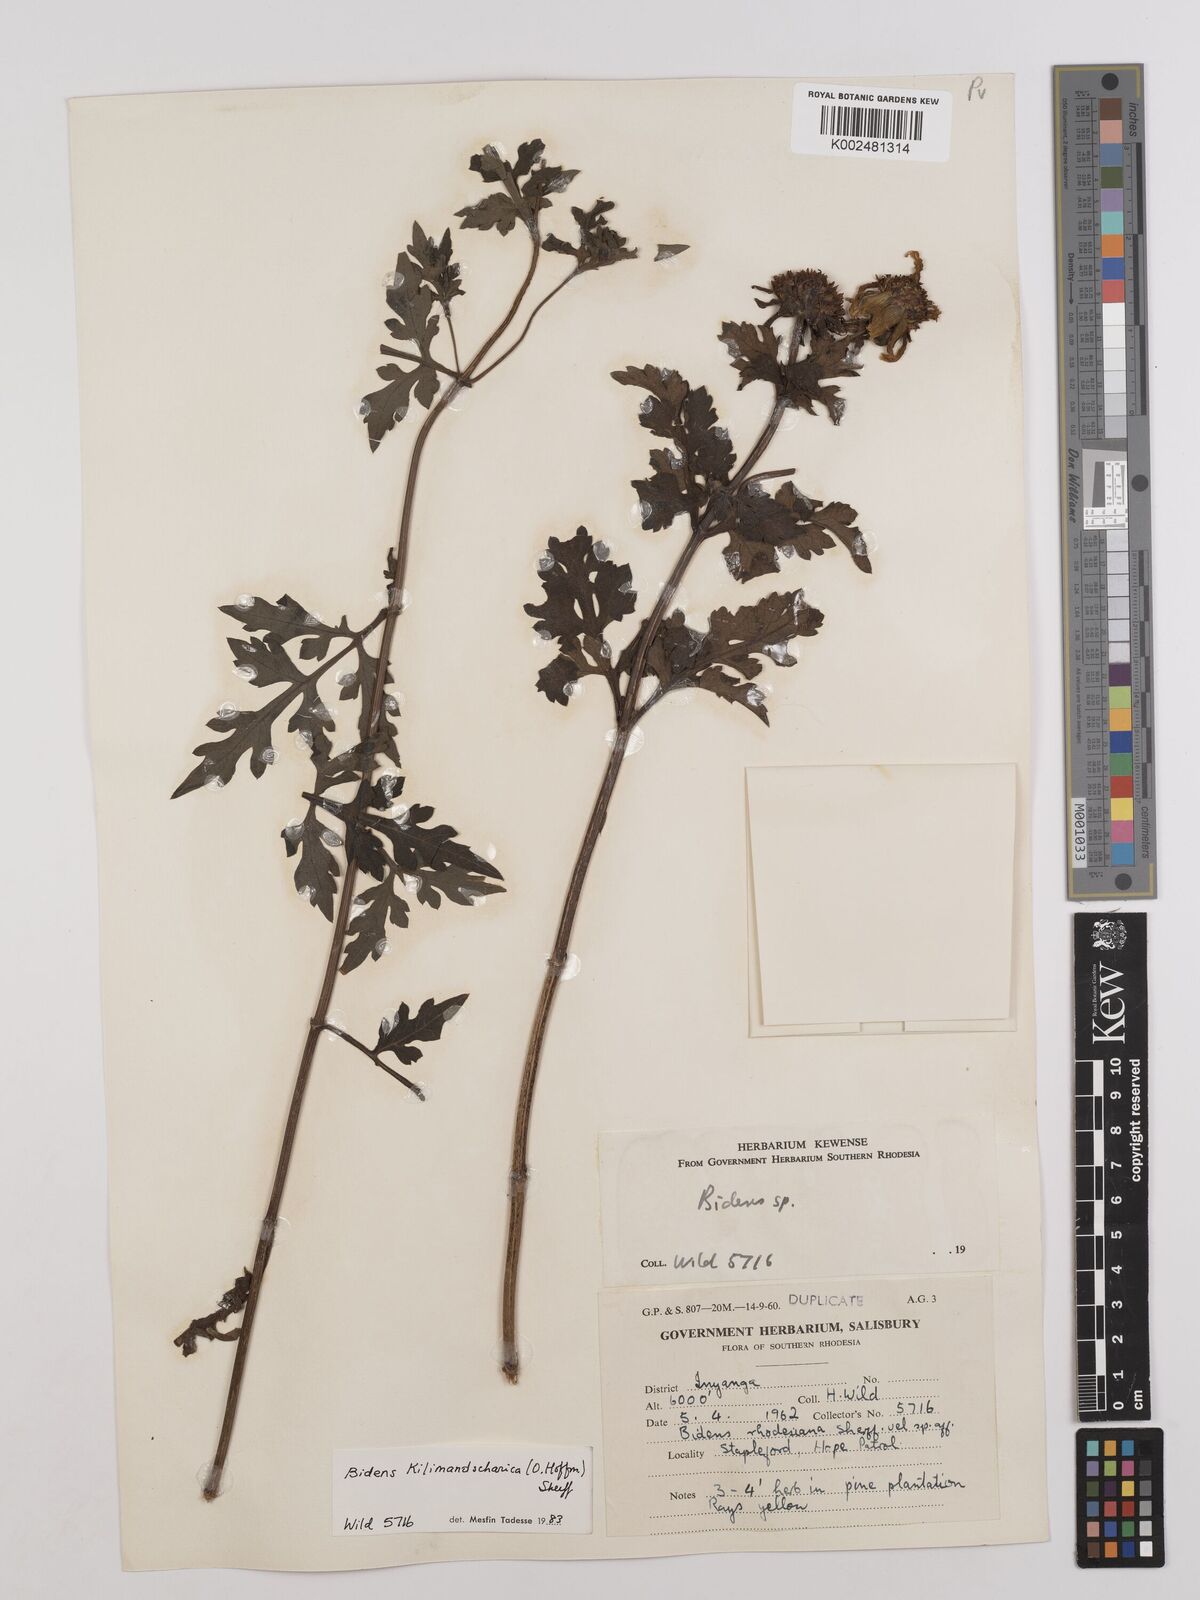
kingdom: Plantae
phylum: Tracheophyta
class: Magnoliopsida
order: Asterales
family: Asteraceae
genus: Bidens
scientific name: Bidens kilimandscharica
